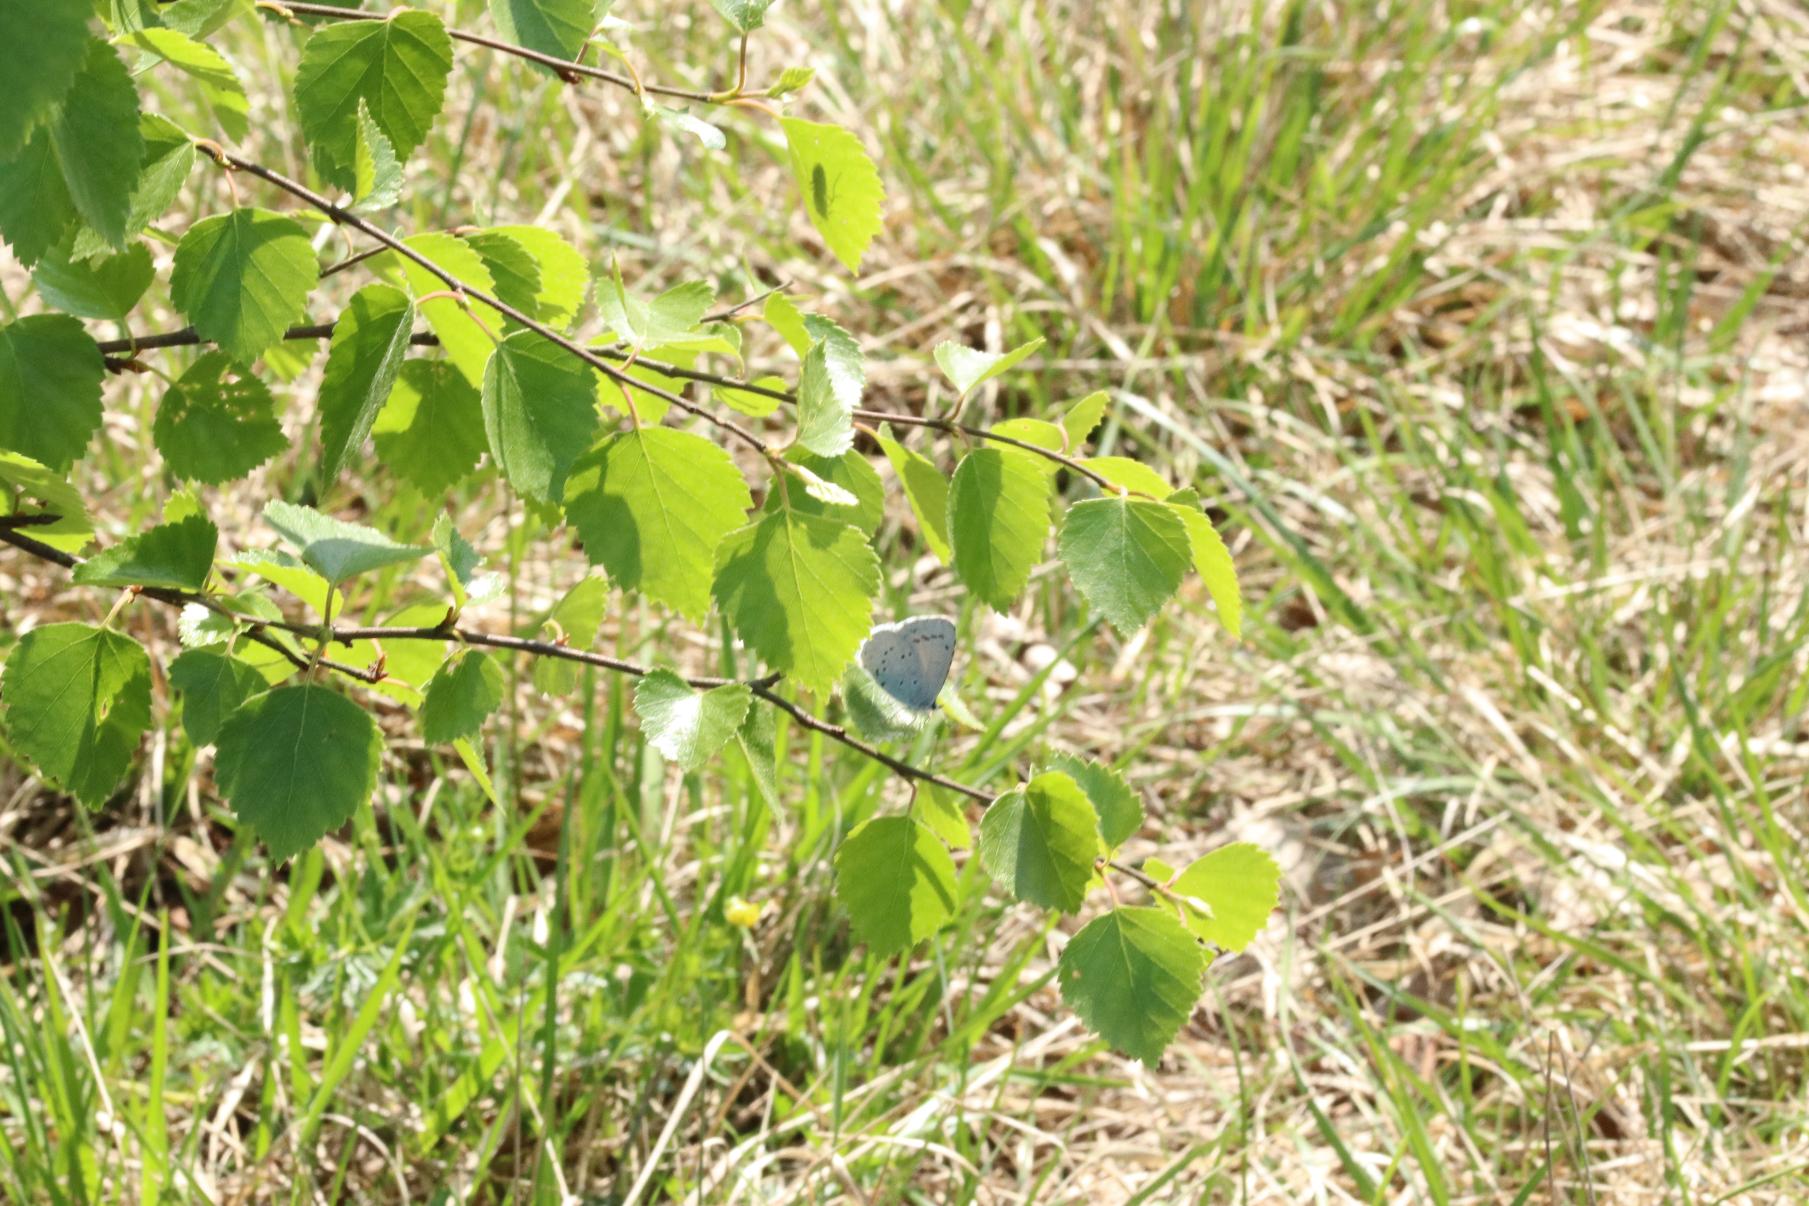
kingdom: Animalia
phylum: Arthropoda
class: Insecta
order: Lepidoptera
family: Lycaenidae
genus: Celastrina
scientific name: Celastrina argiolus
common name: Skovblåfugl
